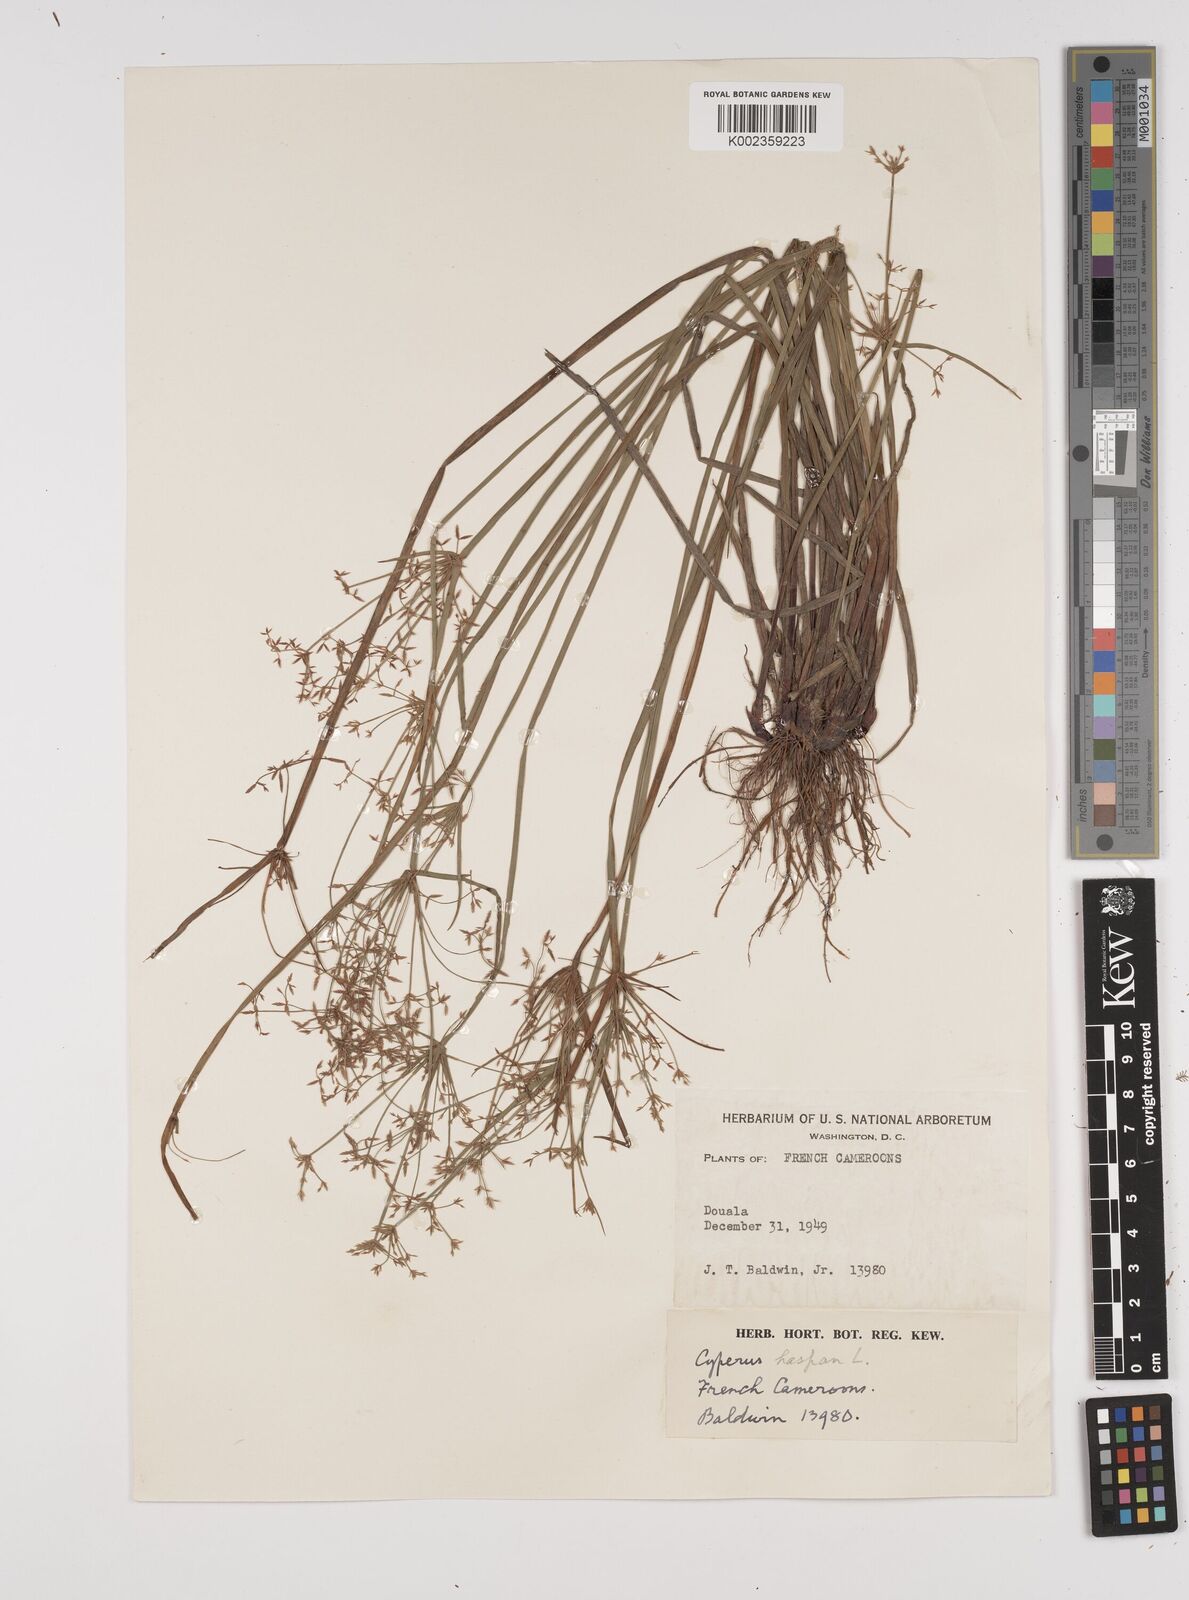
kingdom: Plantae
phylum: Tracheophyta
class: Liliopsida
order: Poales
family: Cyperaceae
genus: Cyperus
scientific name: Cyperus haspan
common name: Haspan flatsedge
